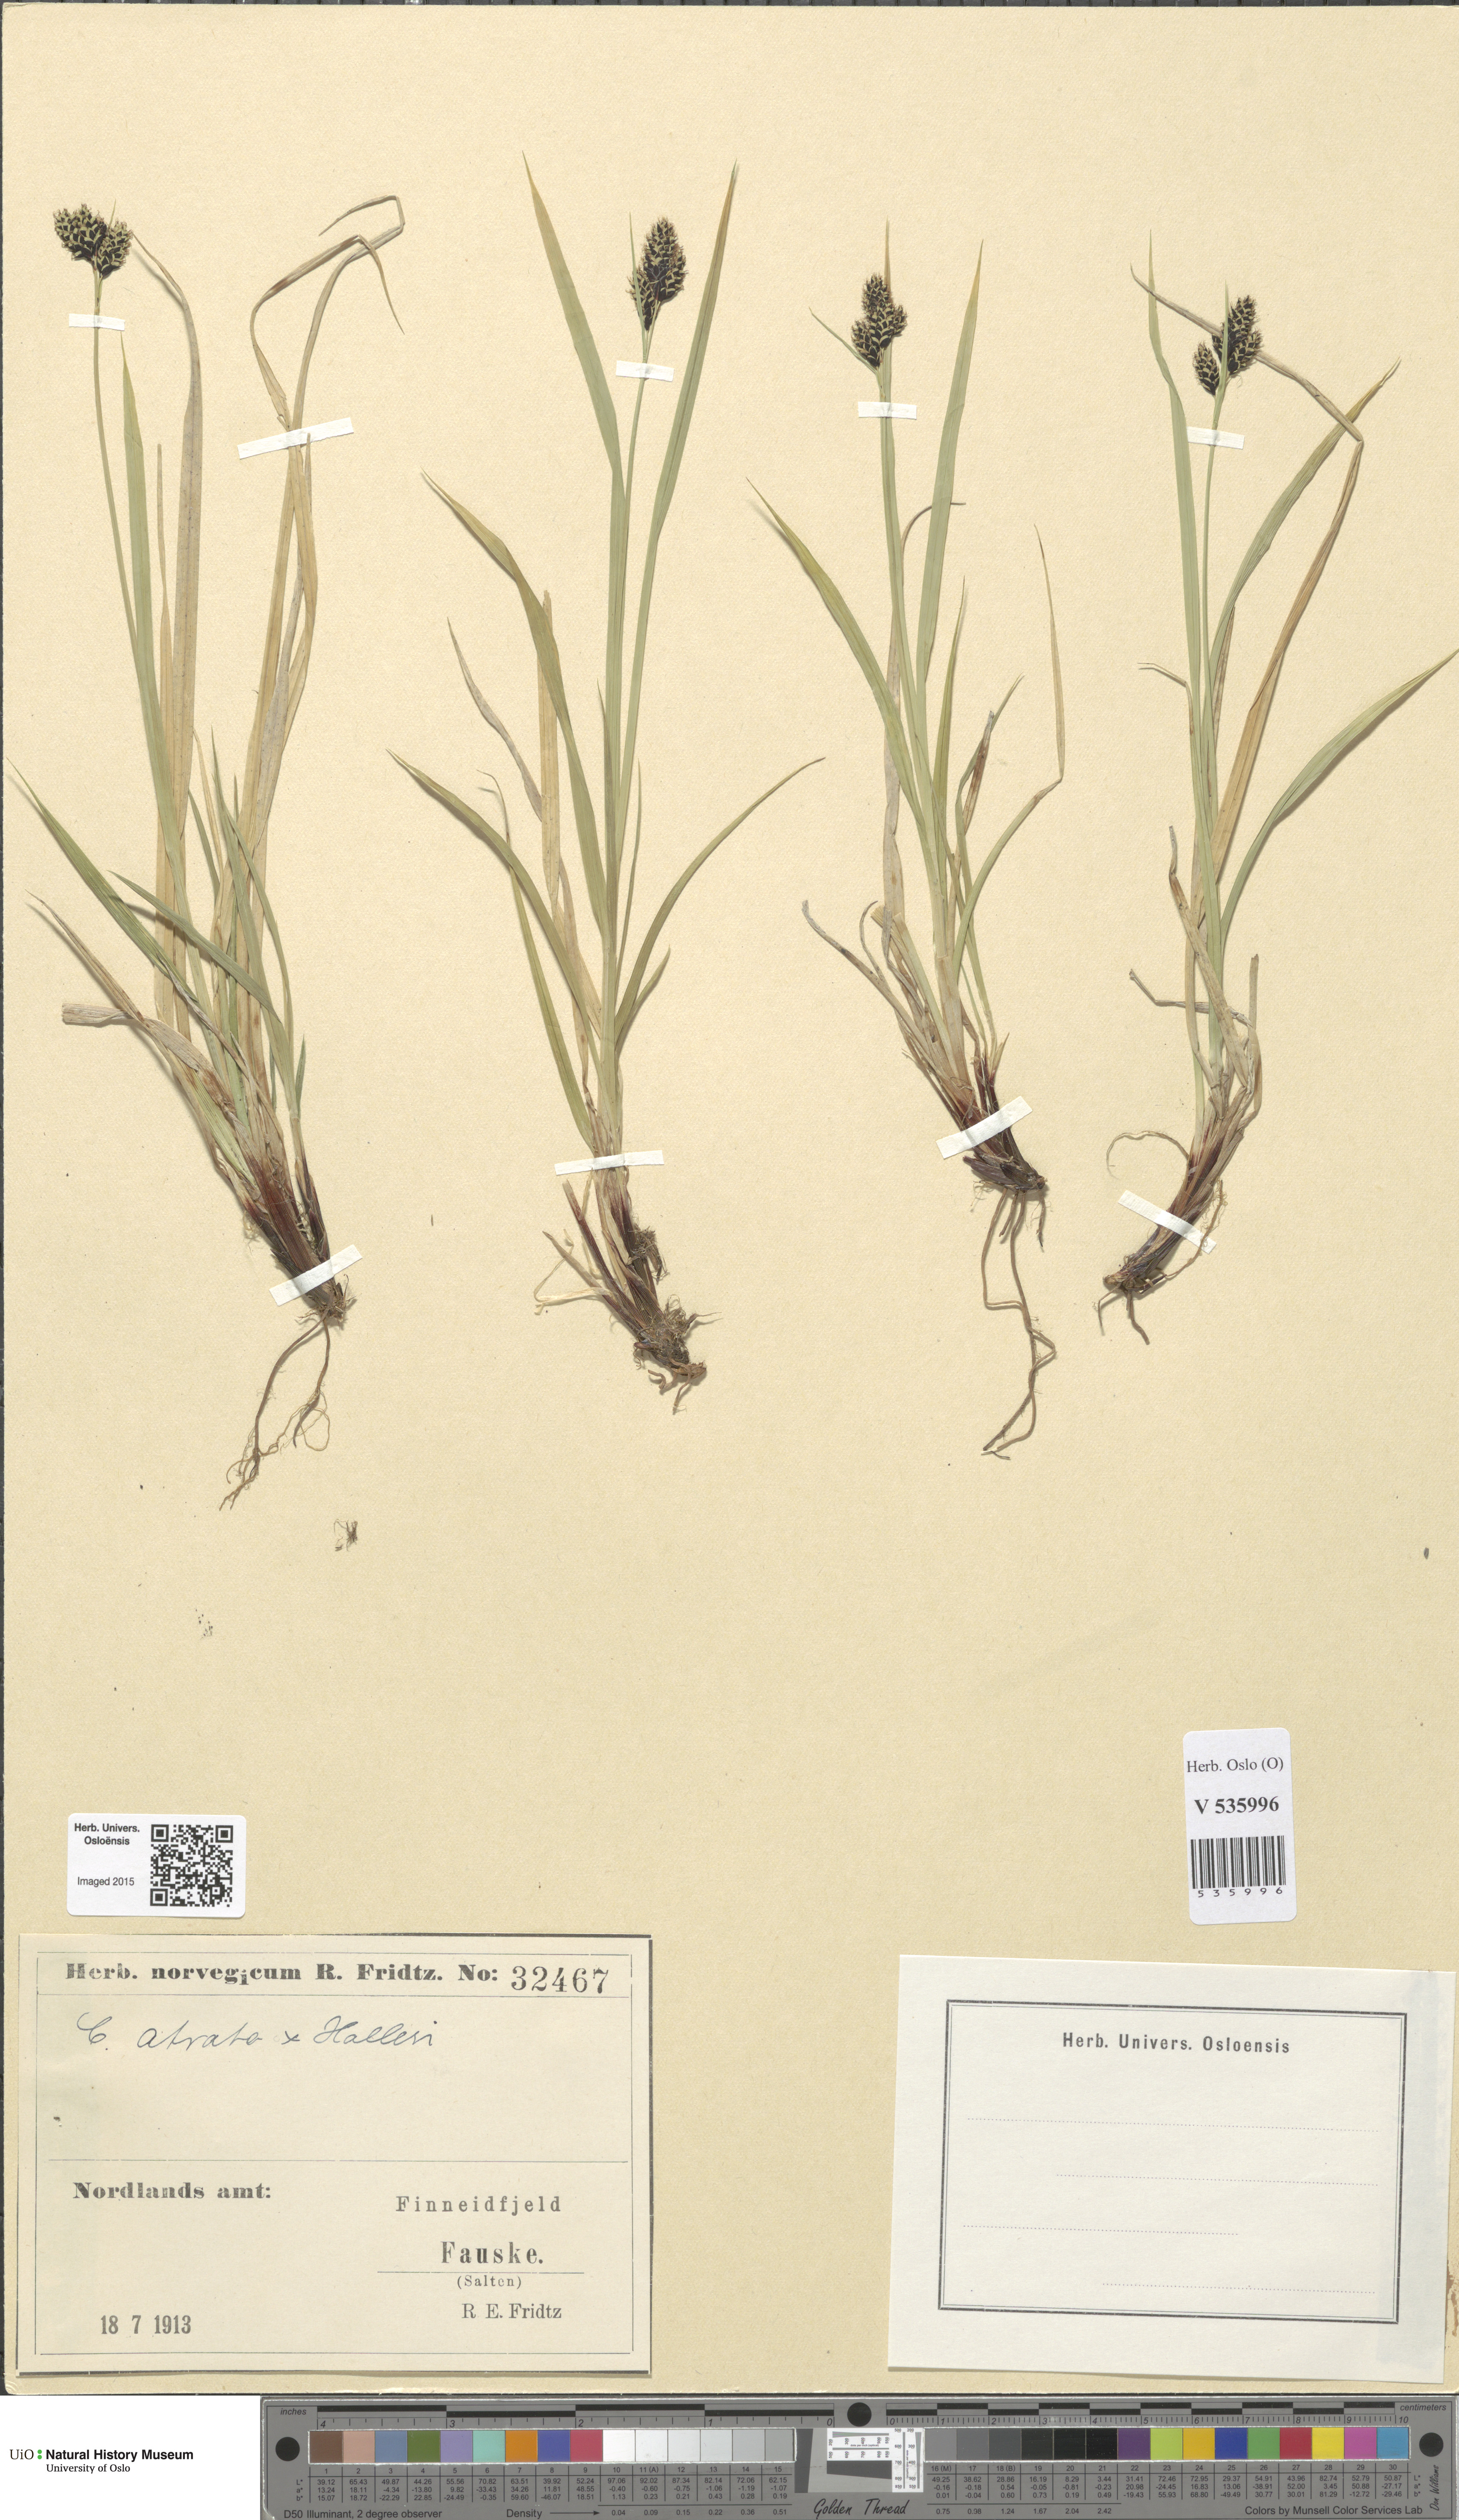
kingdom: Plantae
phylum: Tracheophyta
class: Liliopsida
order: Poales
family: Cyperaceae
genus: Carex
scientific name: Carex
